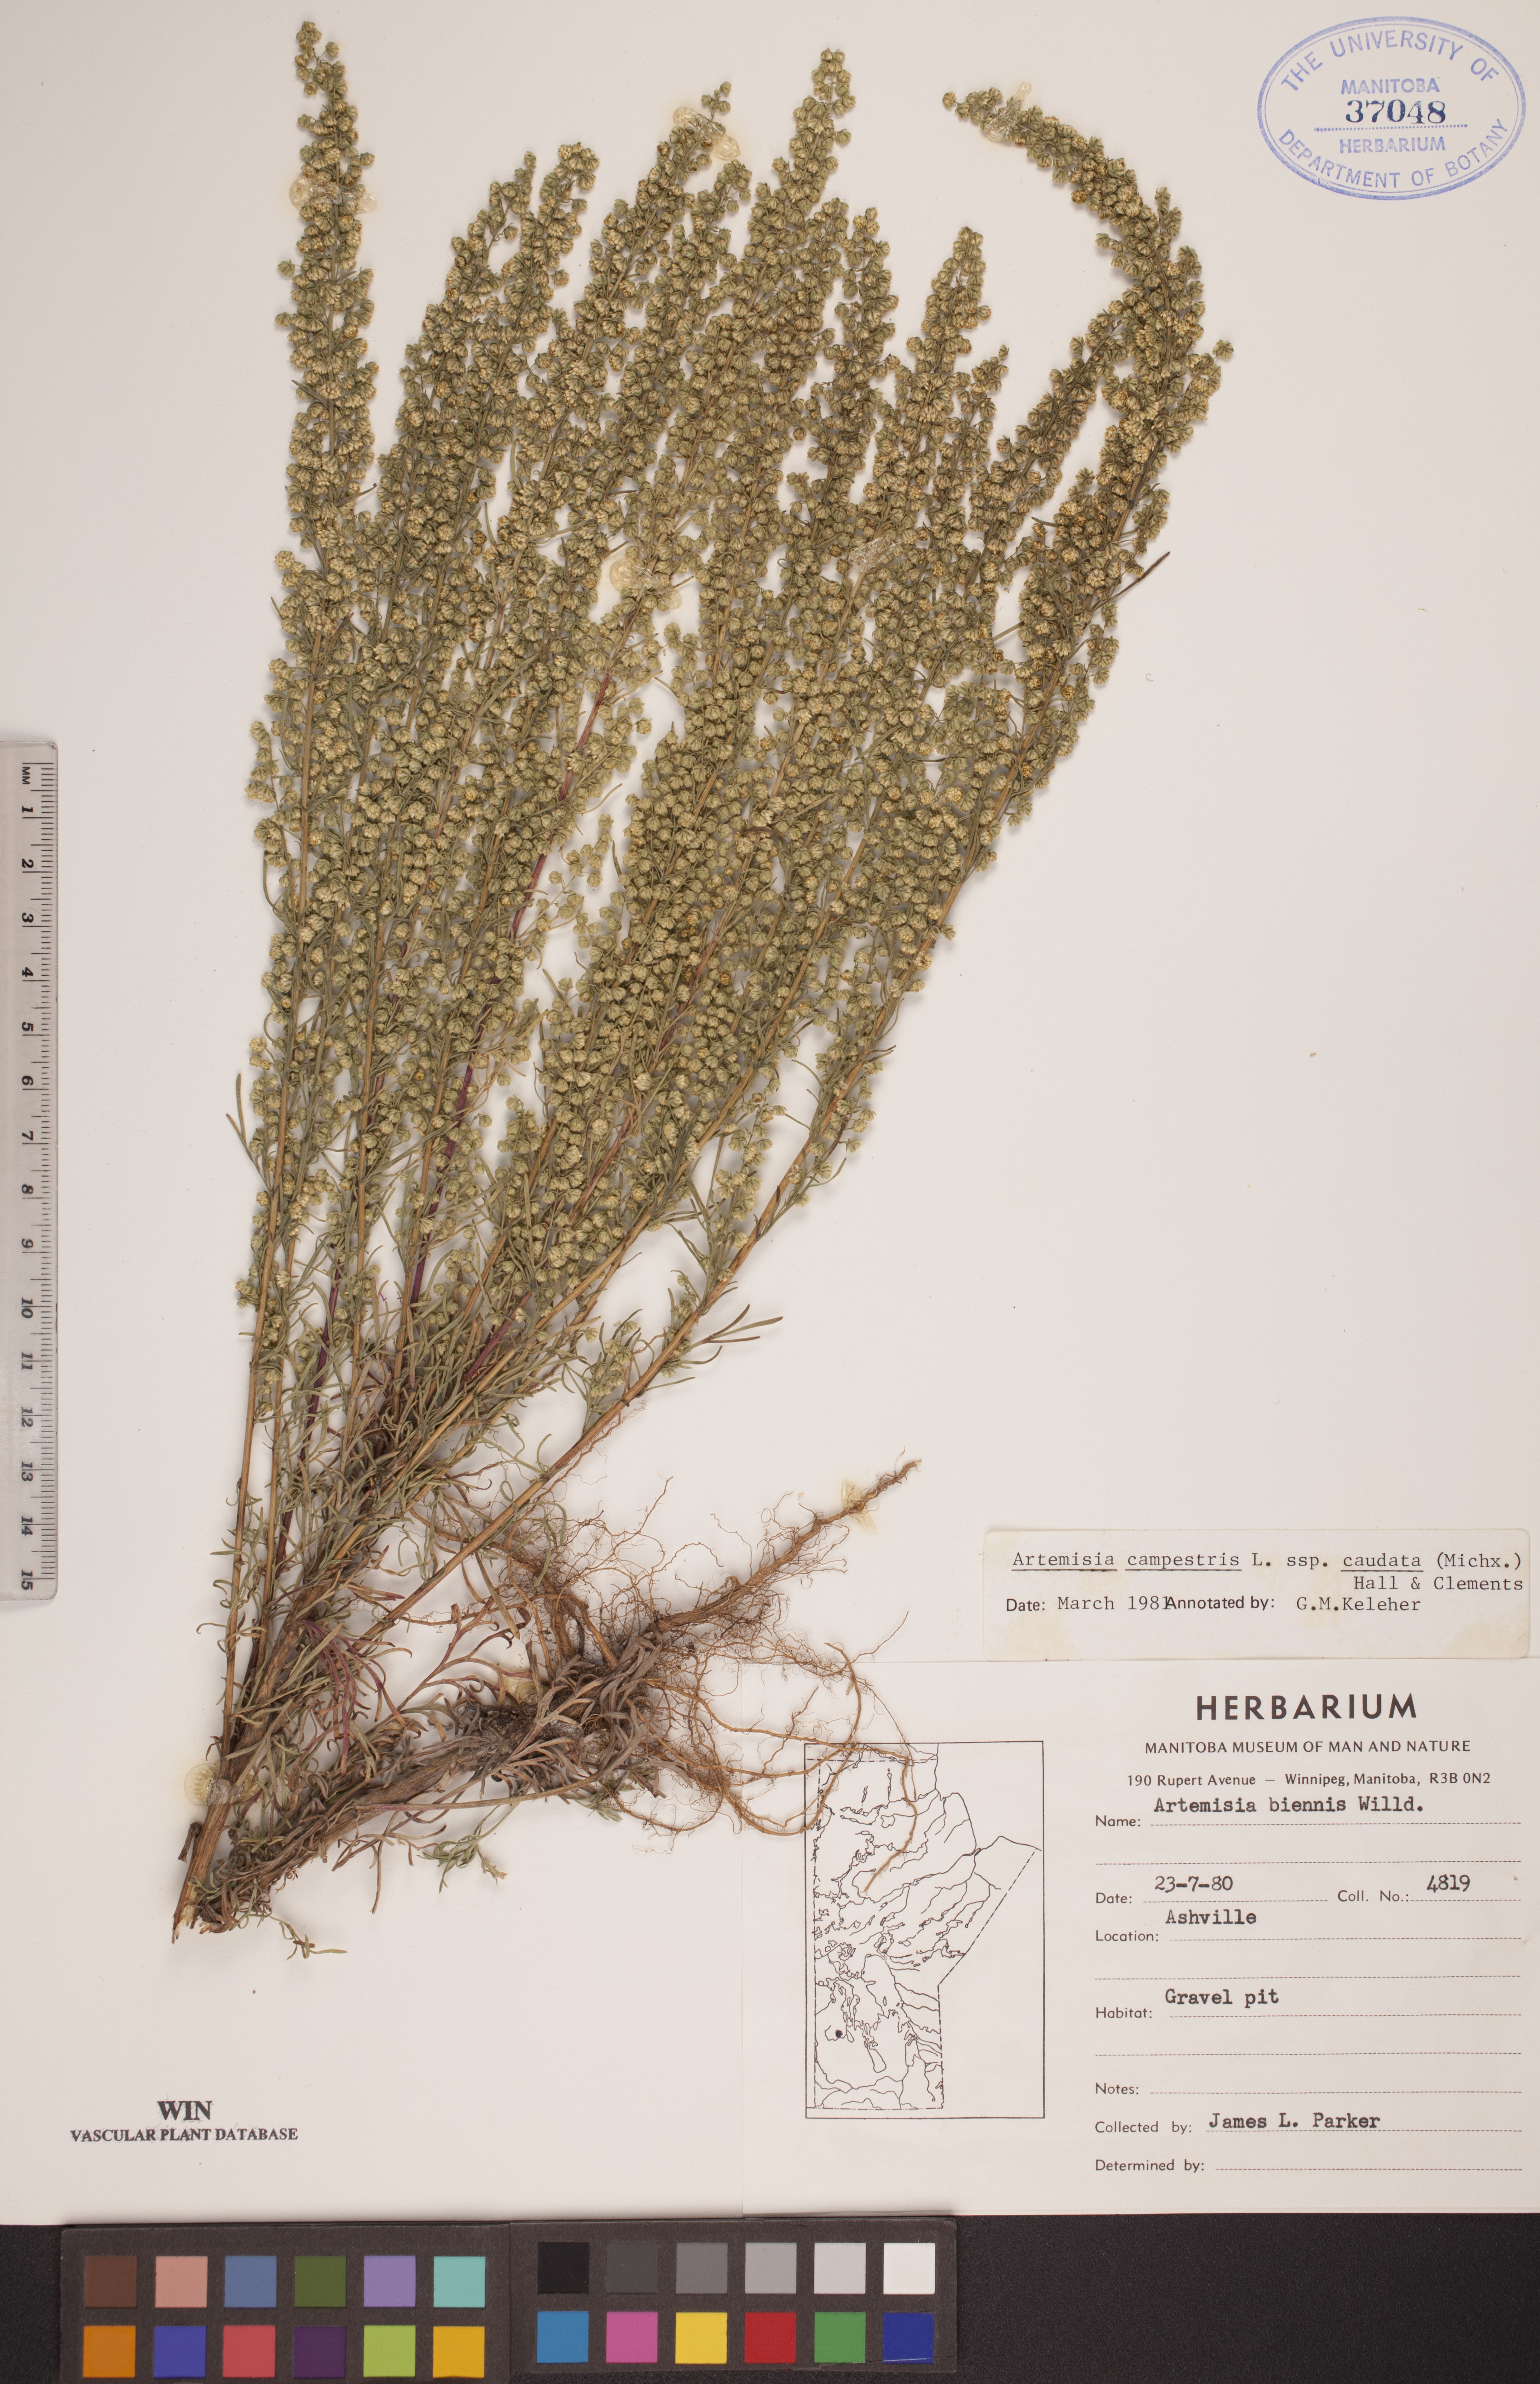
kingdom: Plantae
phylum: Tracheophyta
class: Magnoliopsida
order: Asterales
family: Asteraceae
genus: Artemisia
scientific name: Artemisia campestris
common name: Field wormwood
